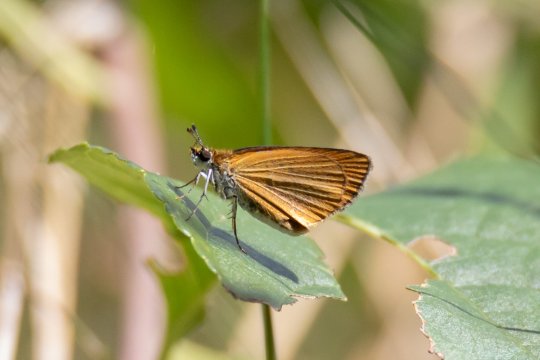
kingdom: Animalia
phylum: Arthropoda
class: Insecta
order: Lepidoptera
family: Hesperiidae
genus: Ancyloxypha
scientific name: Ancyloxypha numitor
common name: Least Skipper
